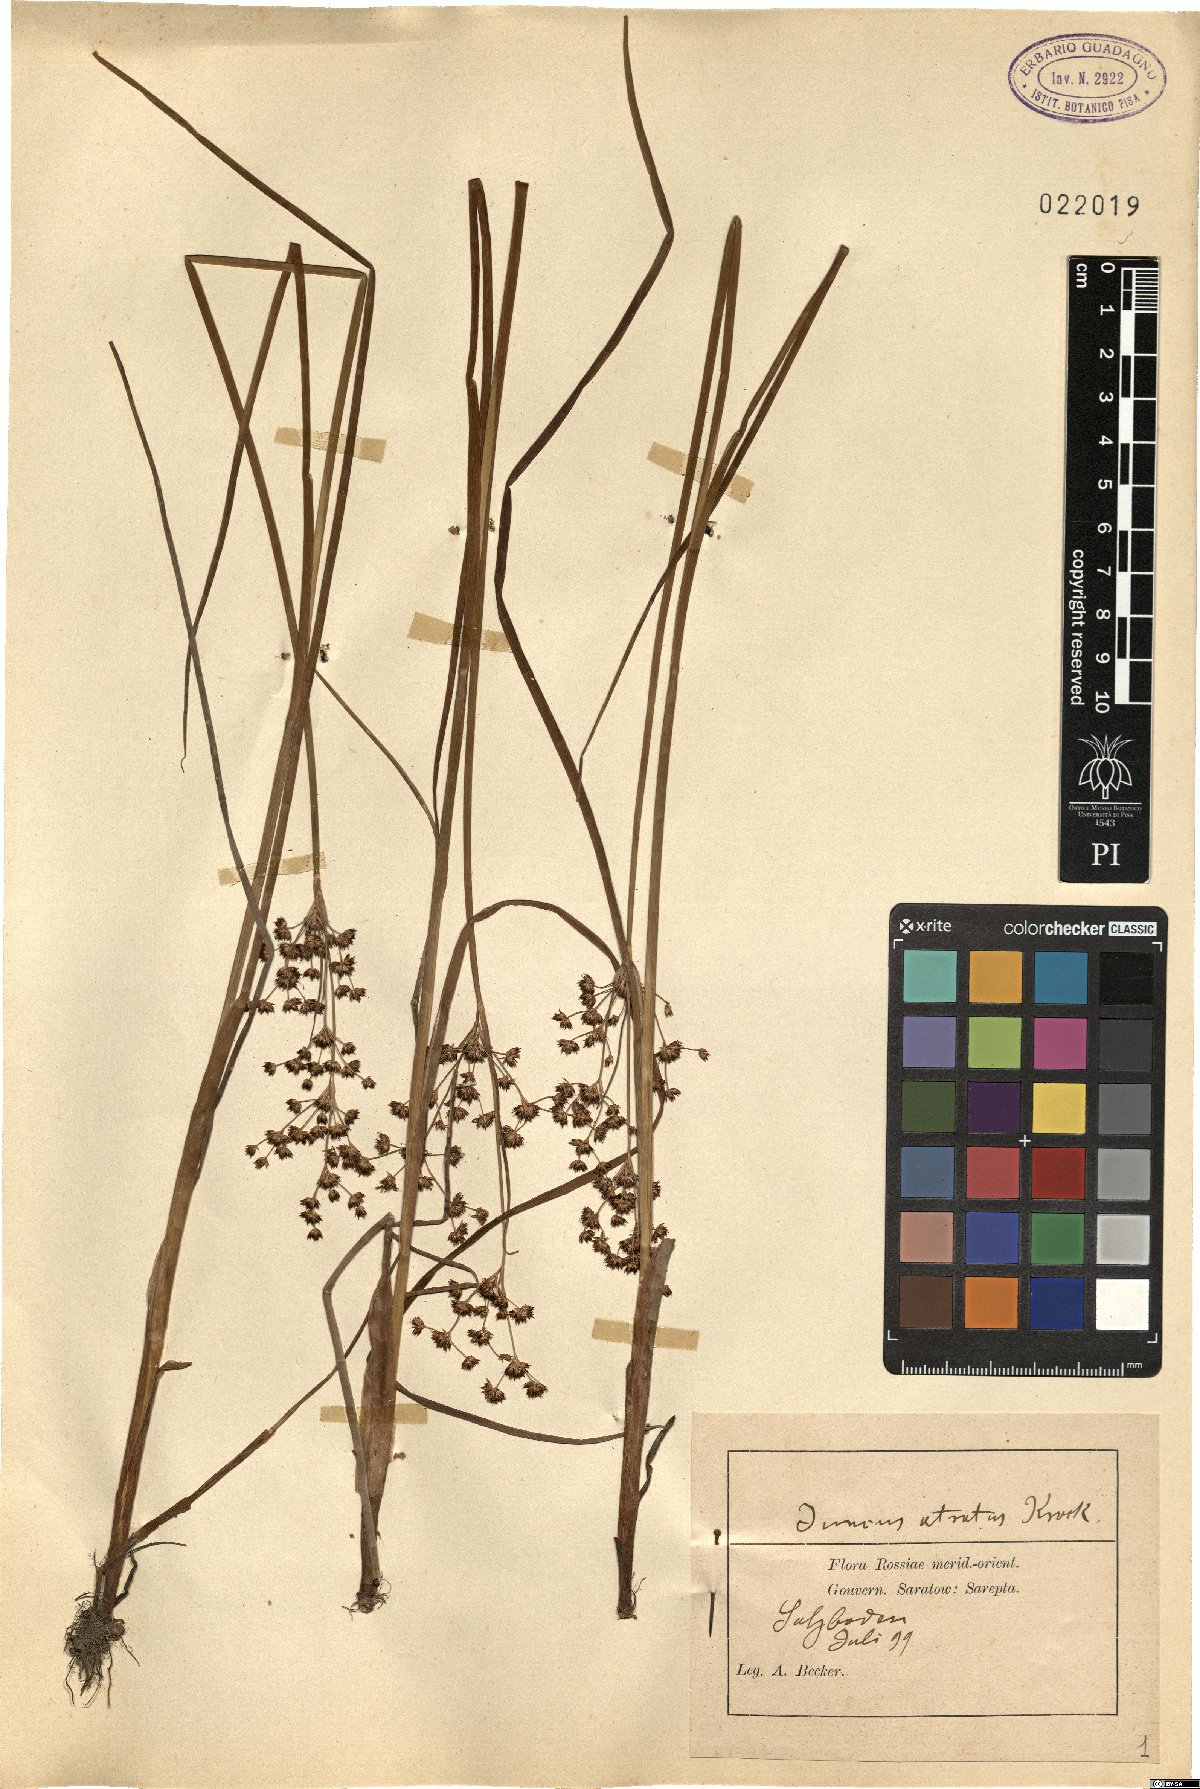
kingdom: Plantae
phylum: Tracheophyta
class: Liliopsida
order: Poales
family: Juncaceae
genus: Juncus
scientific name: Juncus atratus
